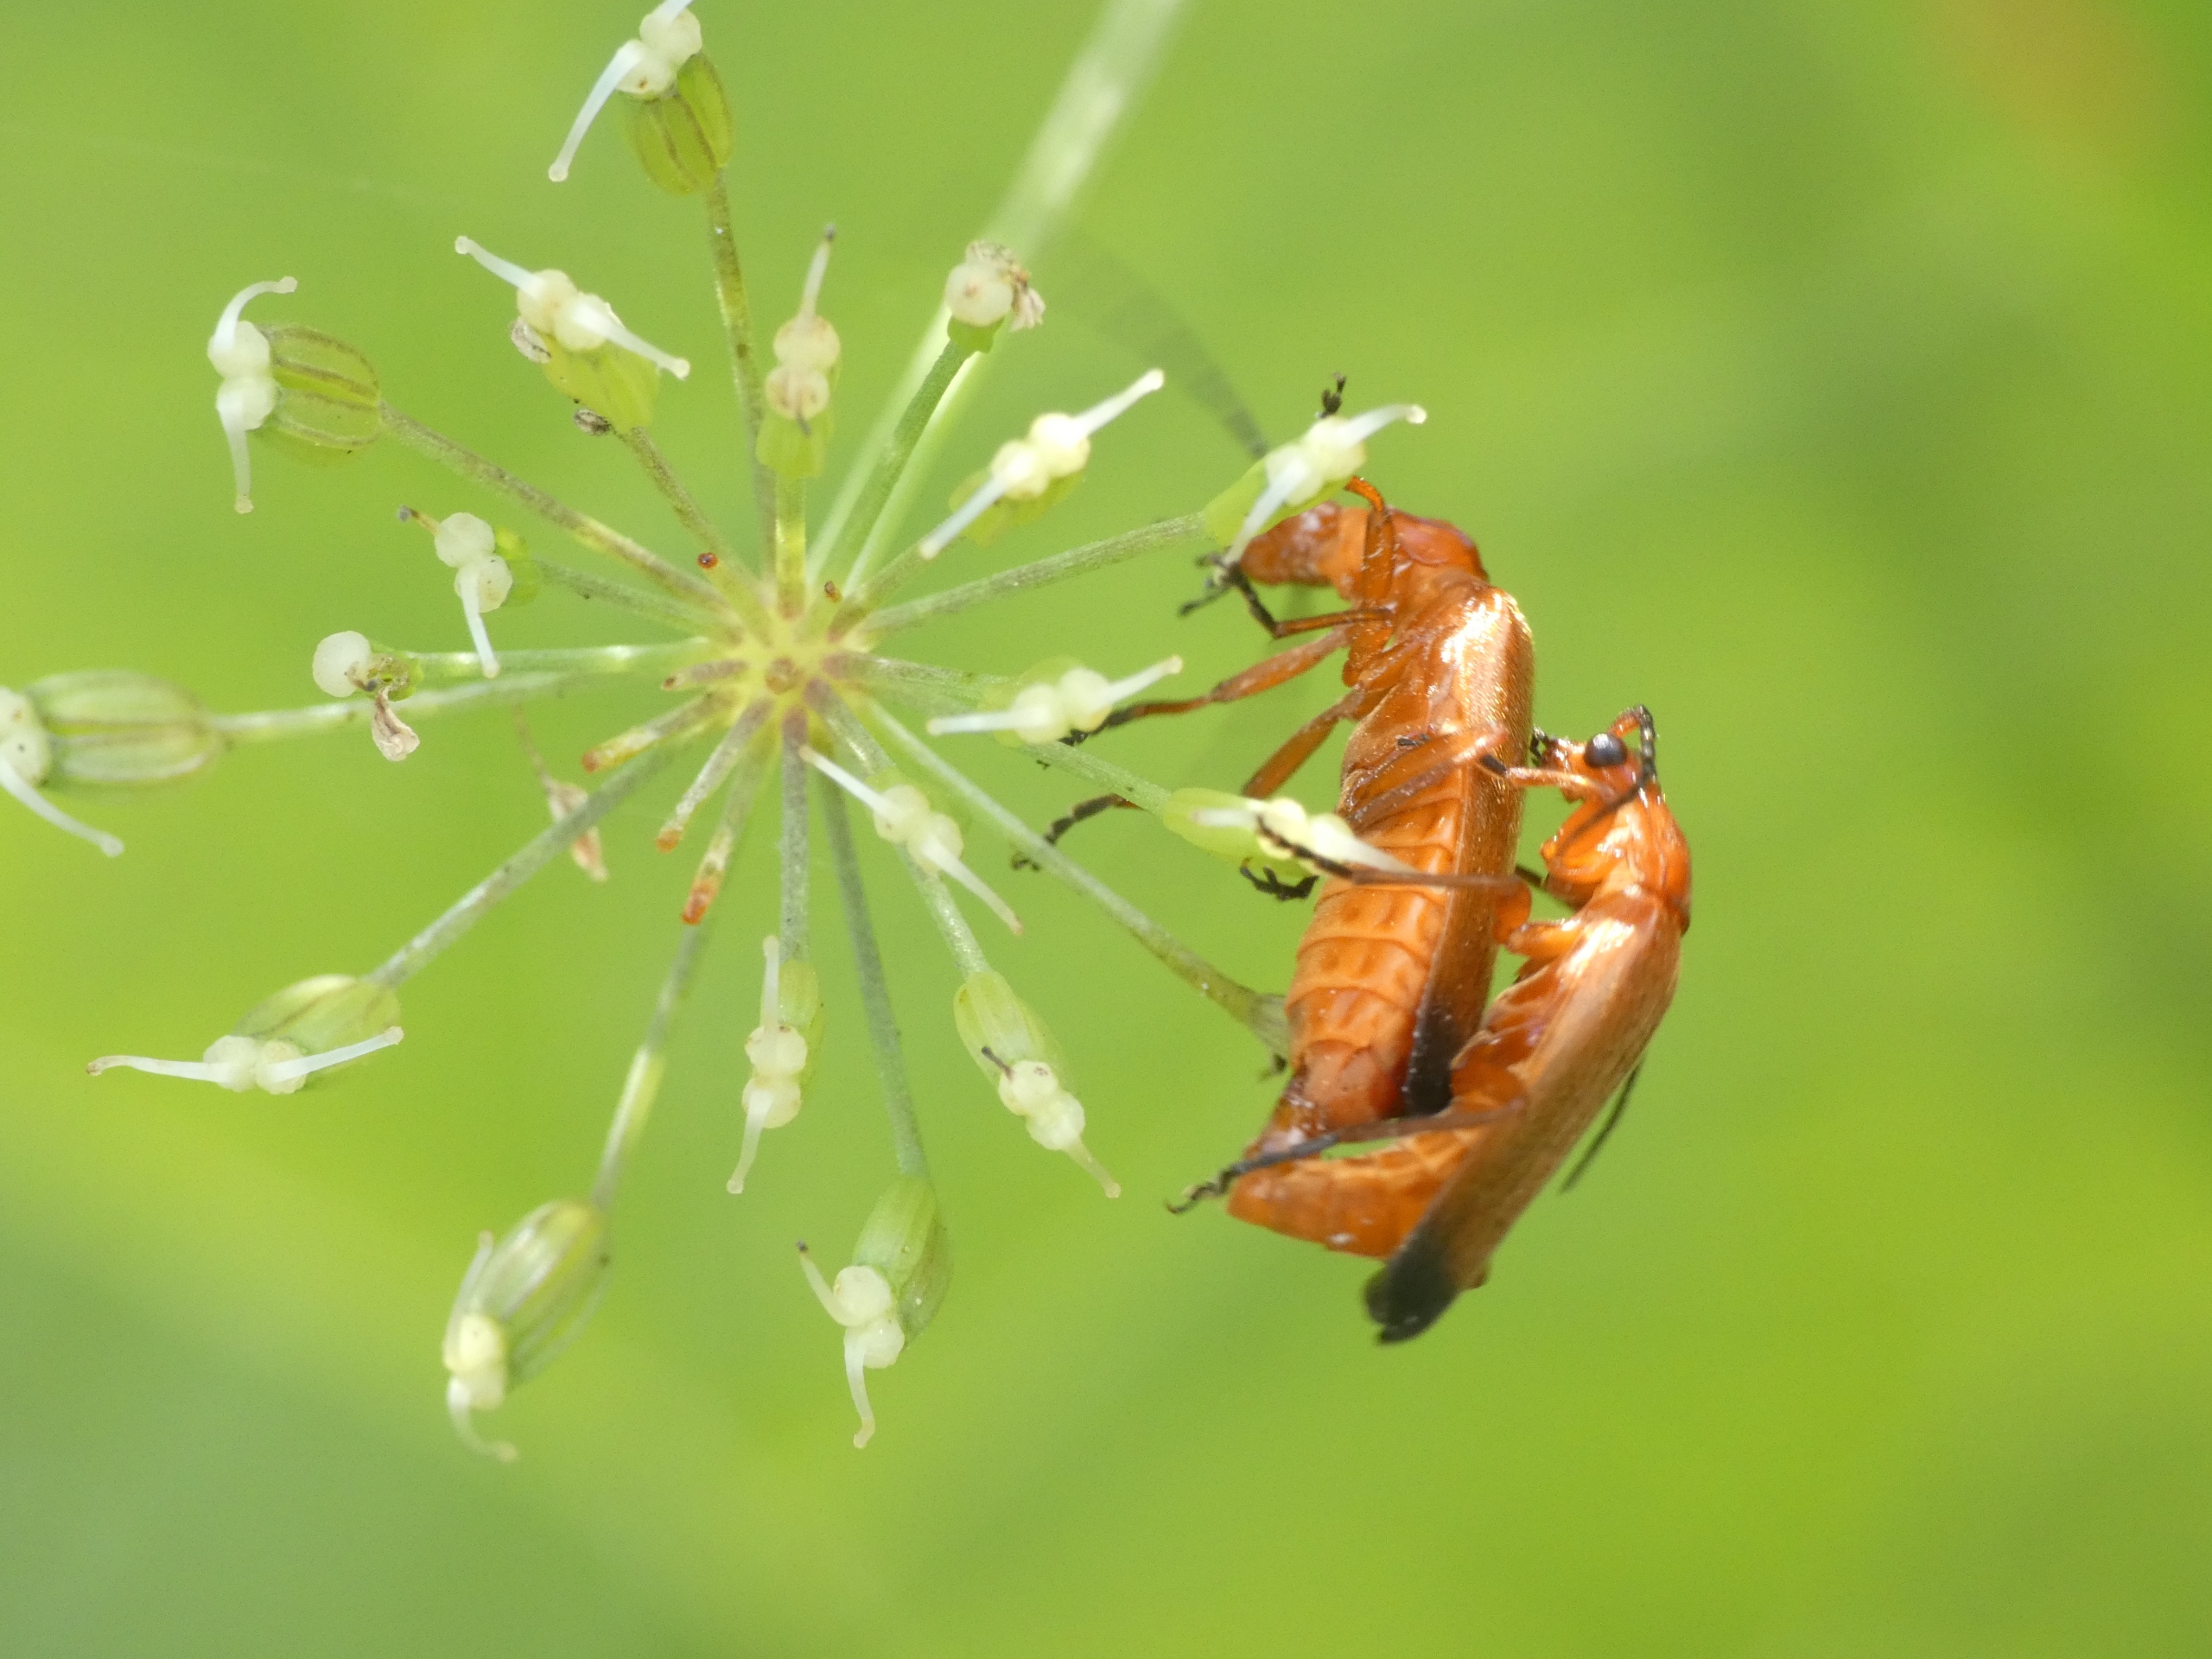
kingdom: Animalia
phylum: Arthropoda
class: Insecta
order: Coleoptera
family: Cantharidae
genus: Rhagonycha
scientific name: Rhagonycha fulva
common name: Præstebille
